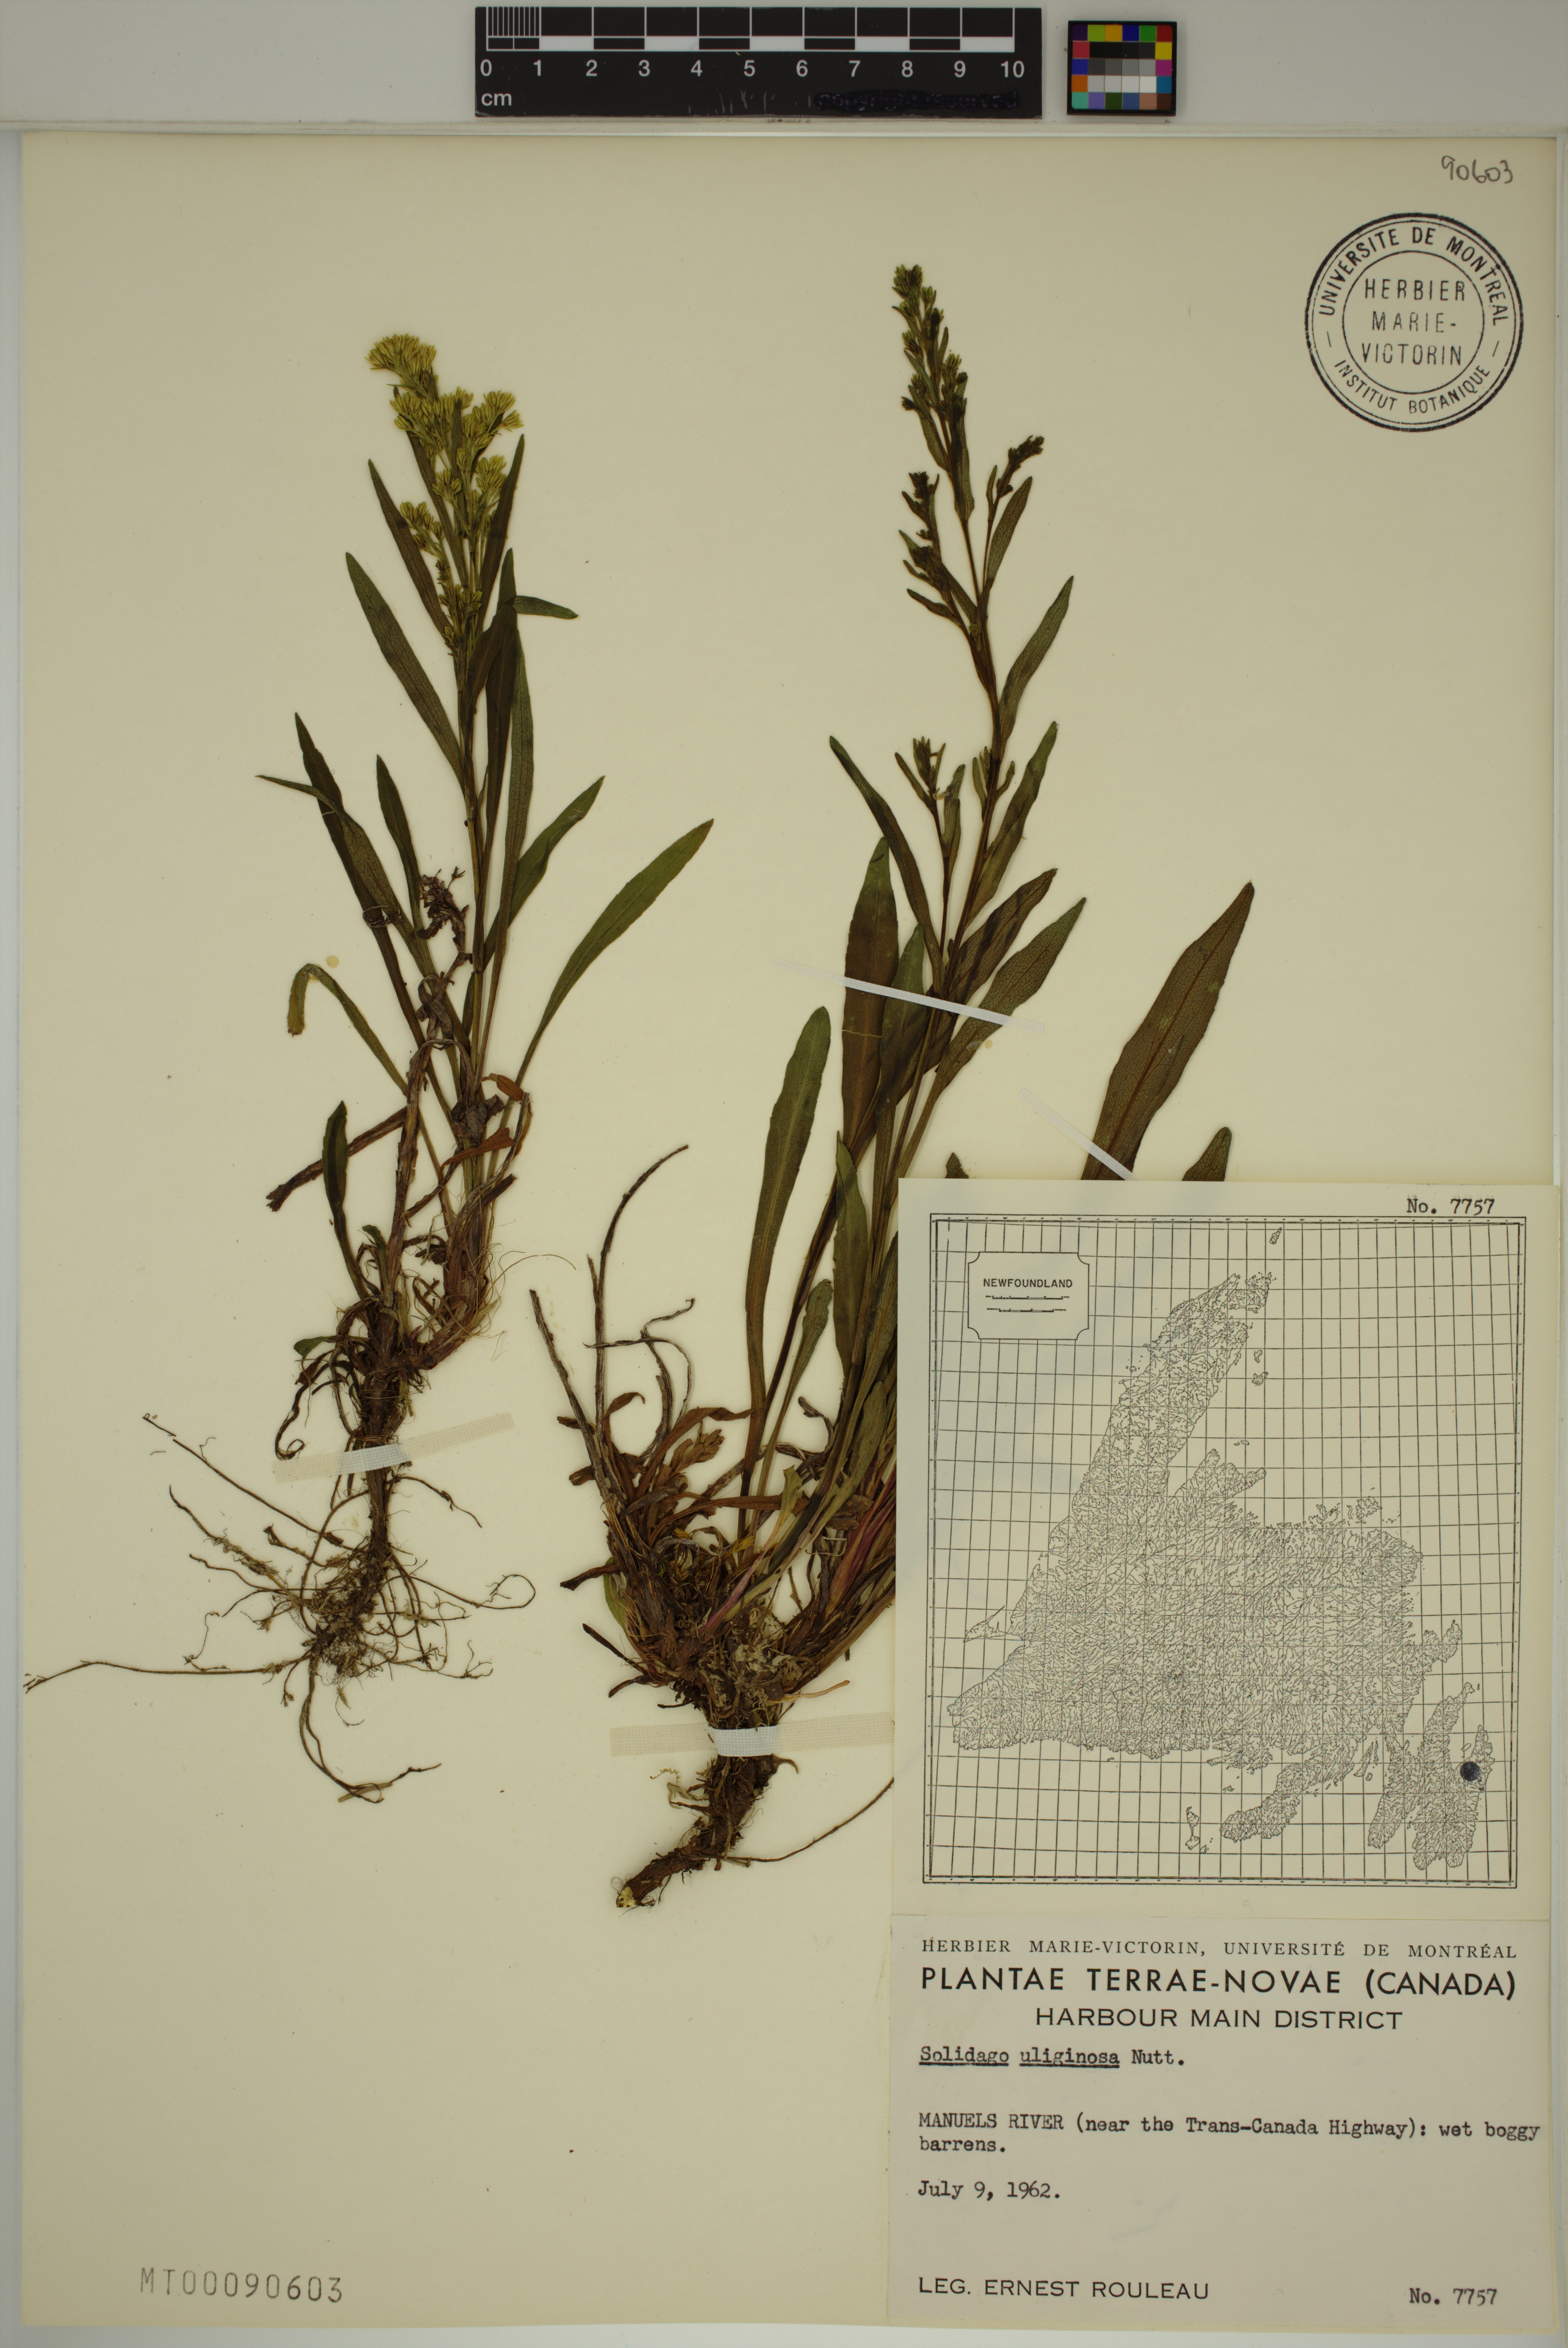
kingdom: Plantae
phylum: Tracheophyta
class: Magnoliopsida
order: Asterales
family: Asteraceae
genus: Solidago
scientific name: Solidago uliginosa
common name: Bog goldenrod
